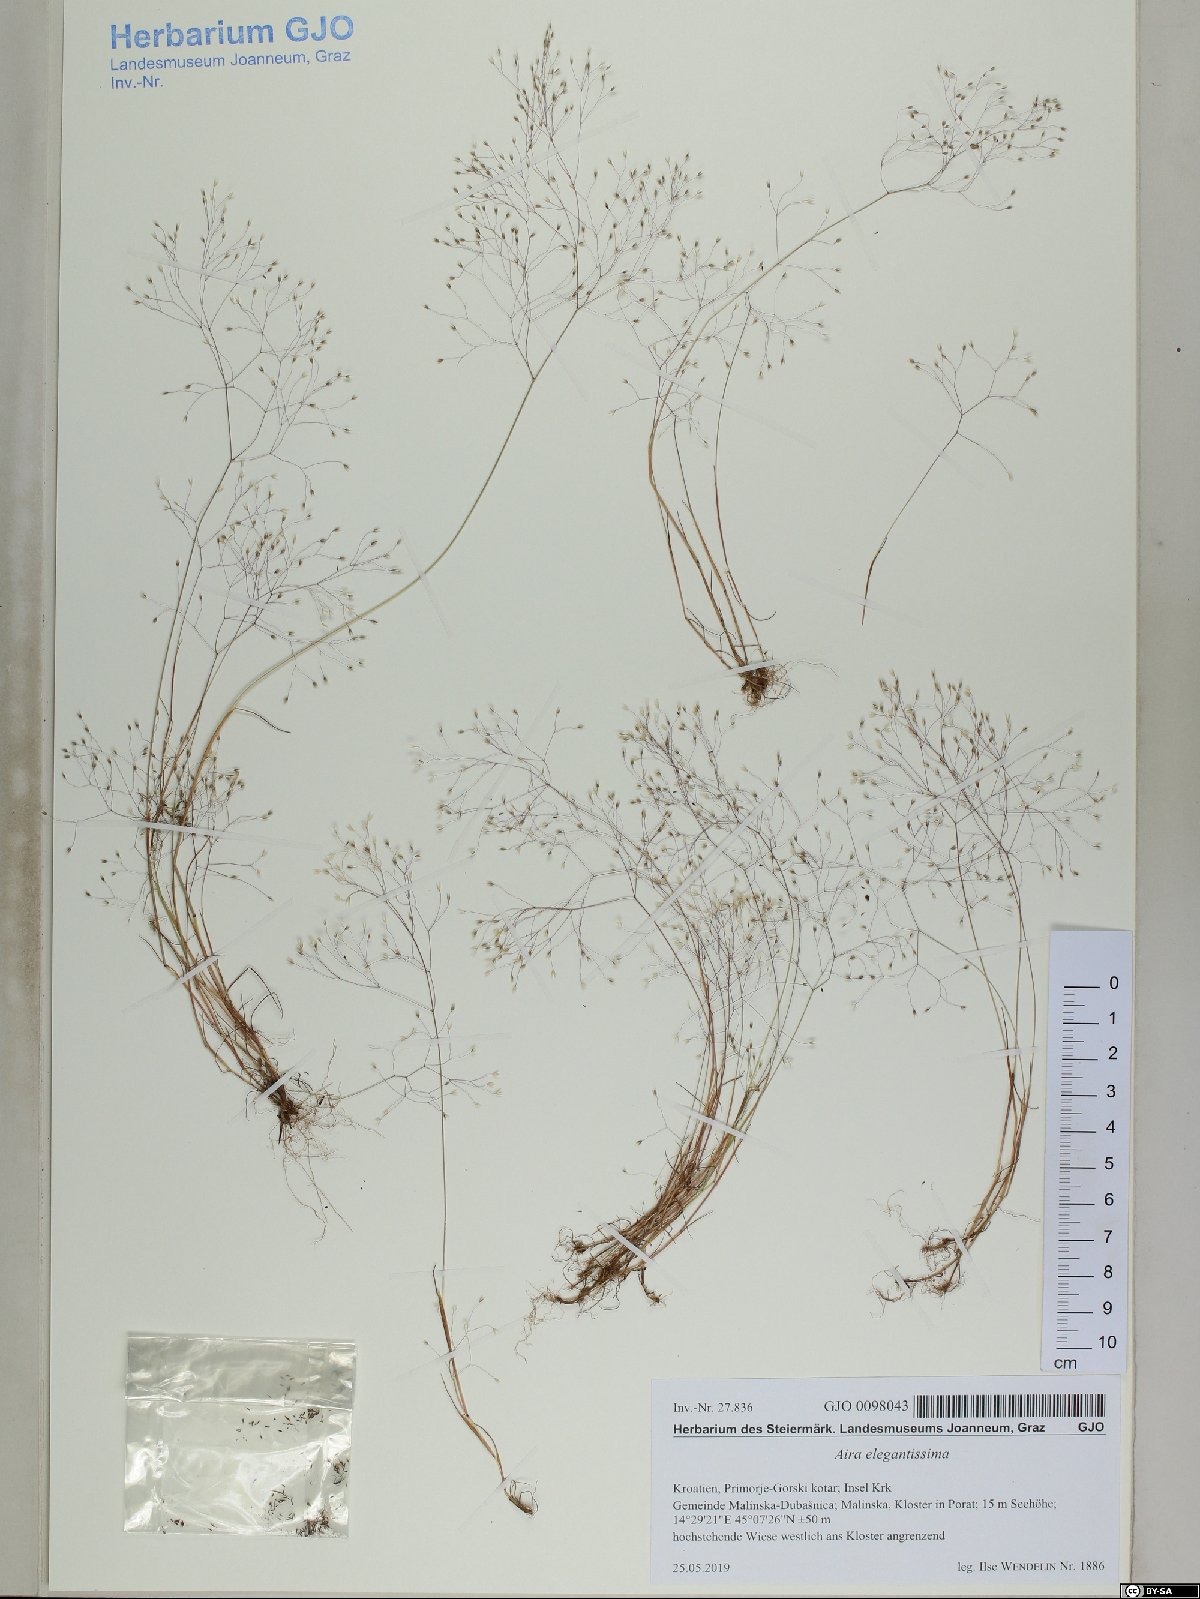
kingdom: Plantae
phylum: Tracheophyta
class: Liliopsida
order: Poales
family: Poaceae
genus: Aira
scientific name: Aira elegans
